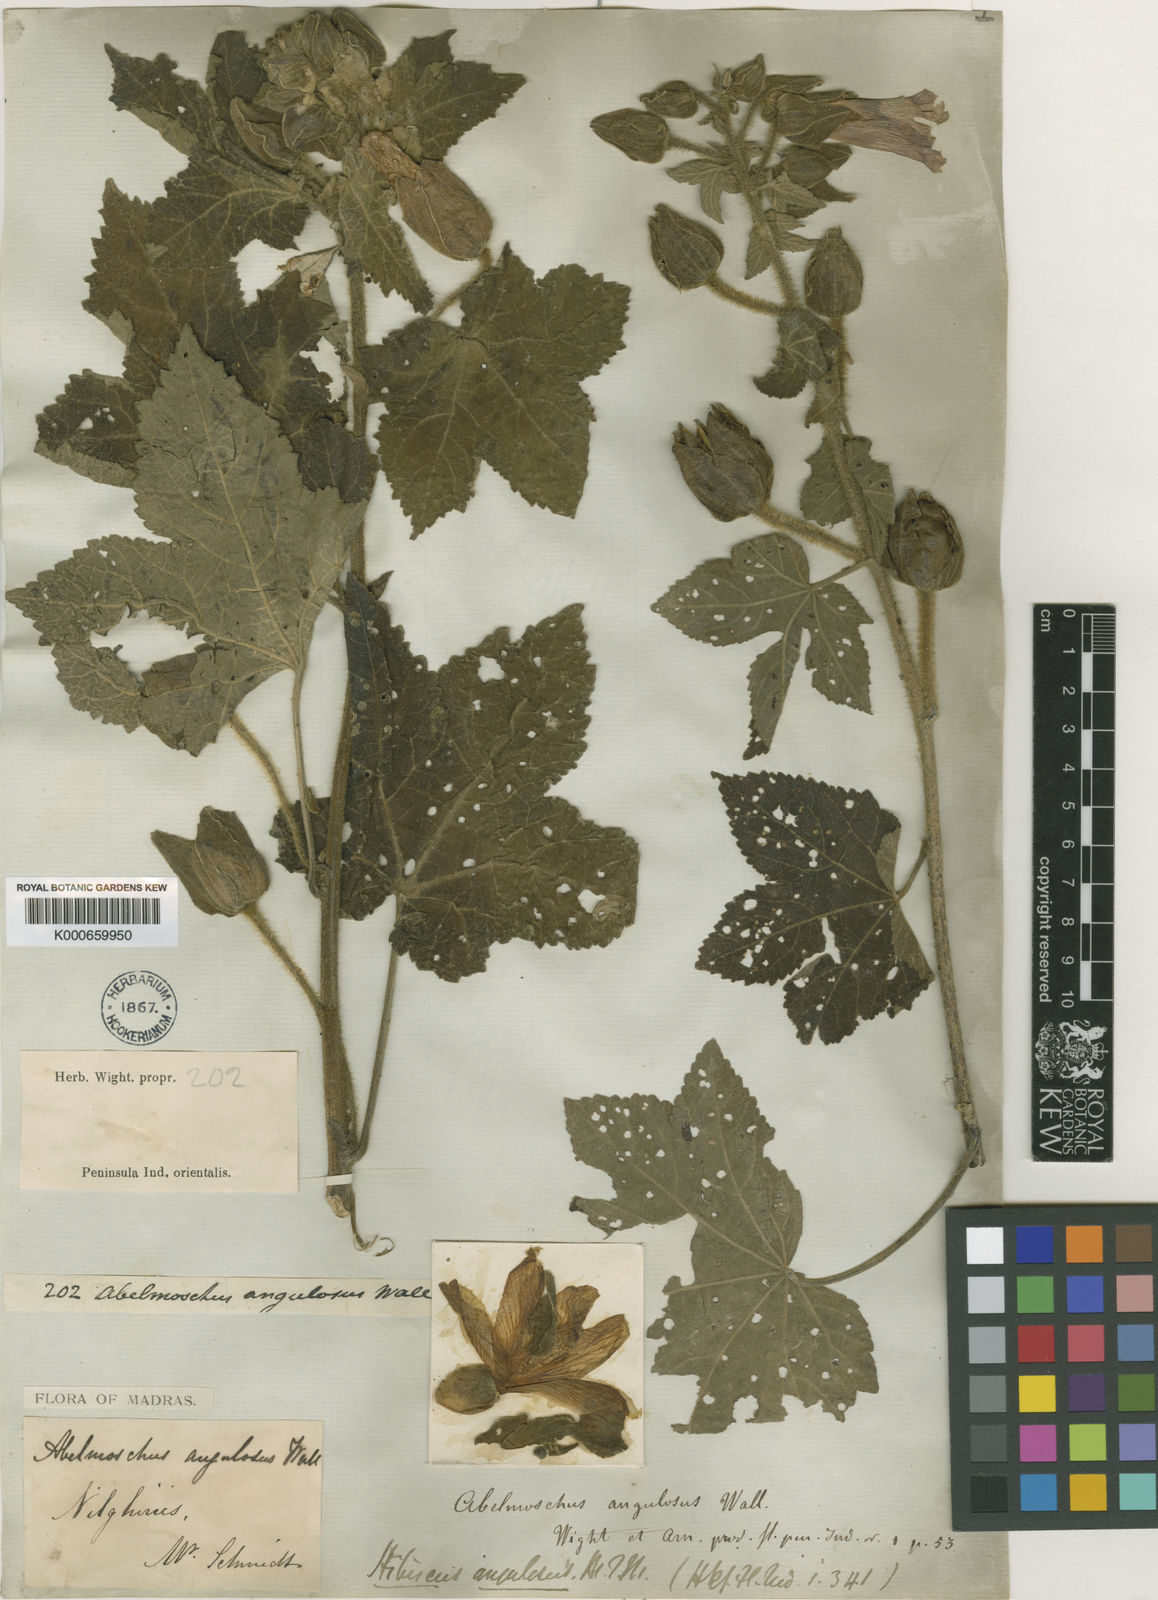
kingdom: Plantae
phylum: Tracheophyta
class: Magnoliopsida
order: Malvales
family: Malvaceae
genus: Abelmoschus
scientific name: Abelmoschus angulosus
